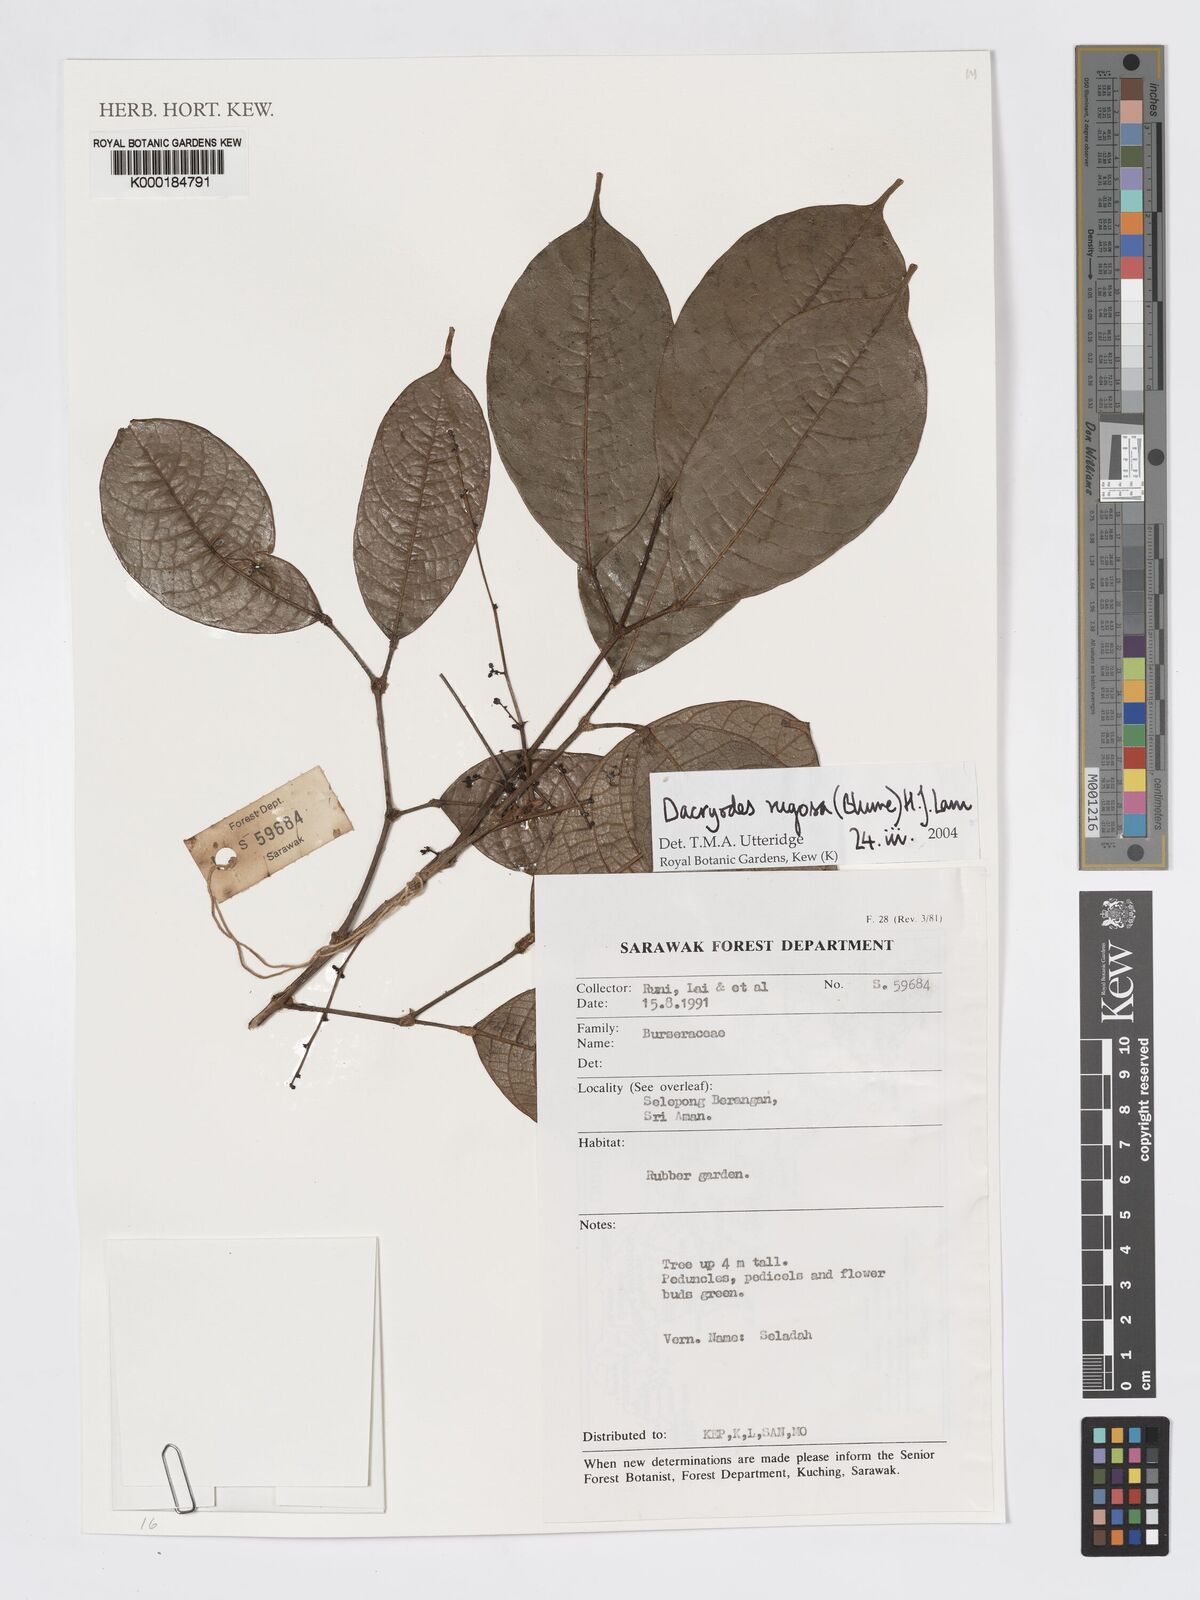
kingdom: Plantae
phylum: Tracheophyta
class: Magnoliopsida
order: Sapindales
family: Burseraceae
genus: Dacryodes
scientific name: Dacryodes rugosa
